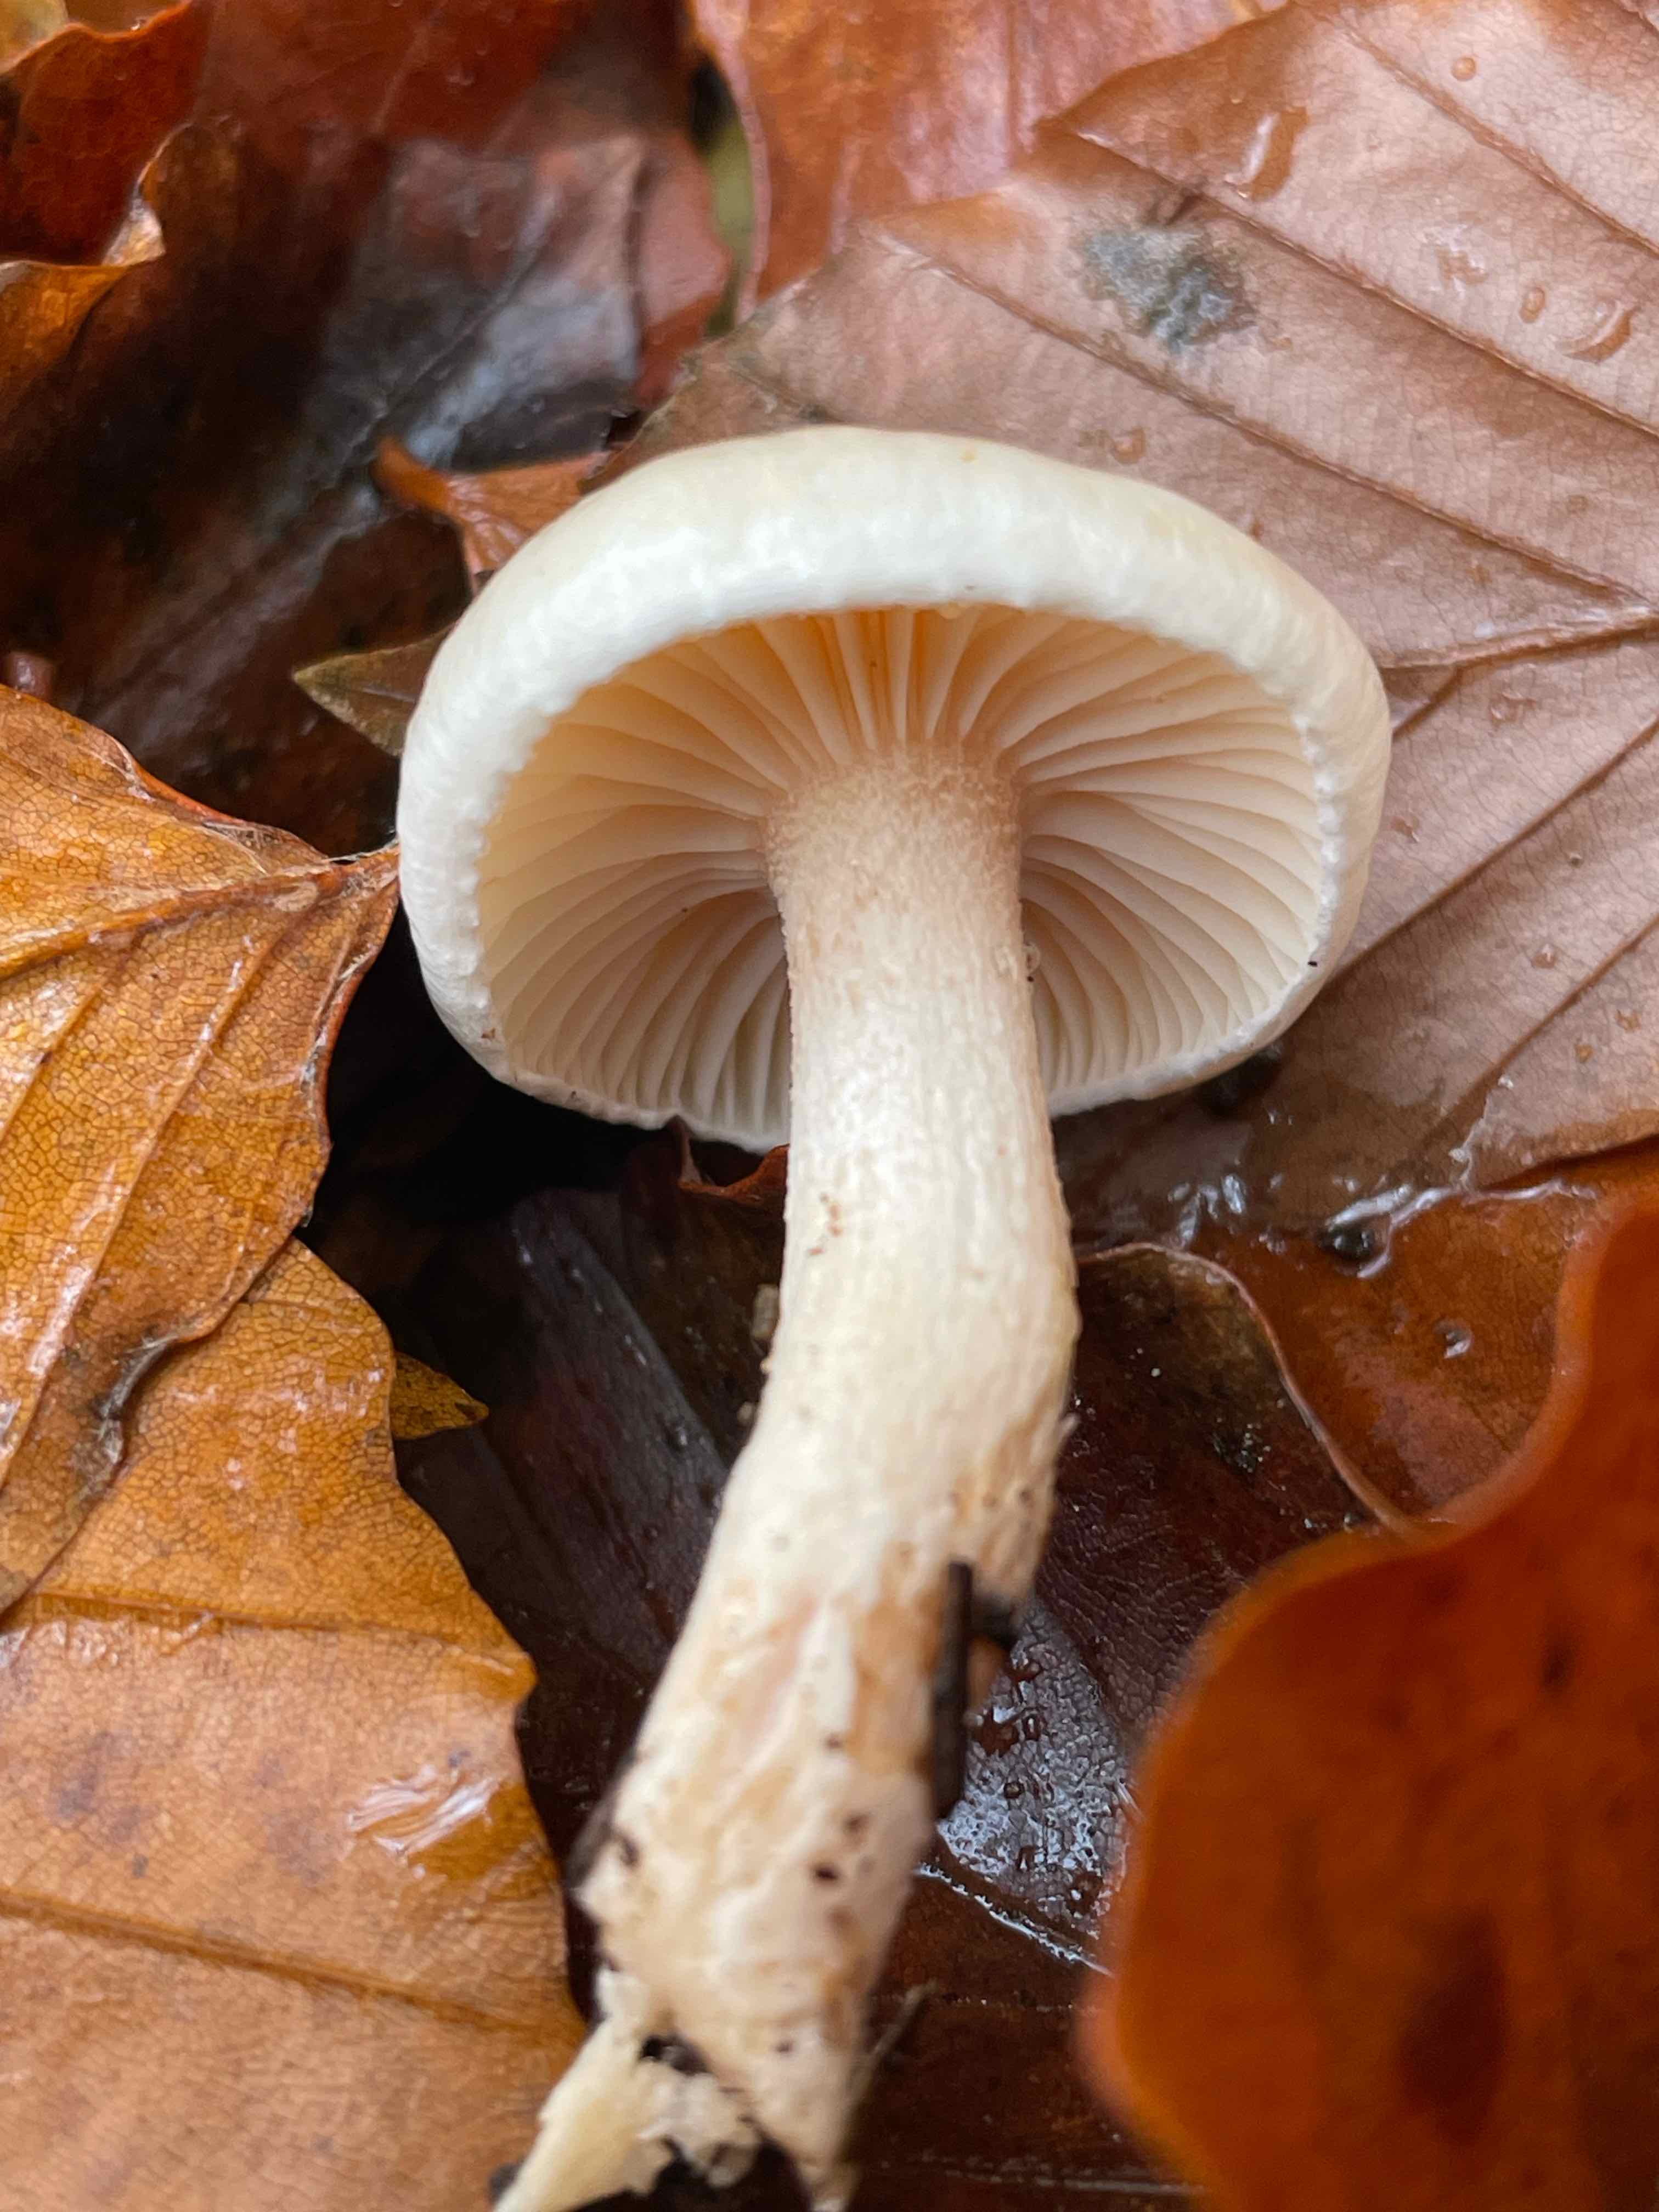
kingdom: Fungi
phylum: Basidiomycota
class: Agaricomycetes
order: Agaricales
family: Hygrophoraceae
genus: Hygrophorus
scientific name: Hygrophorus unicolor
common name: orangeøjet sneglehat
